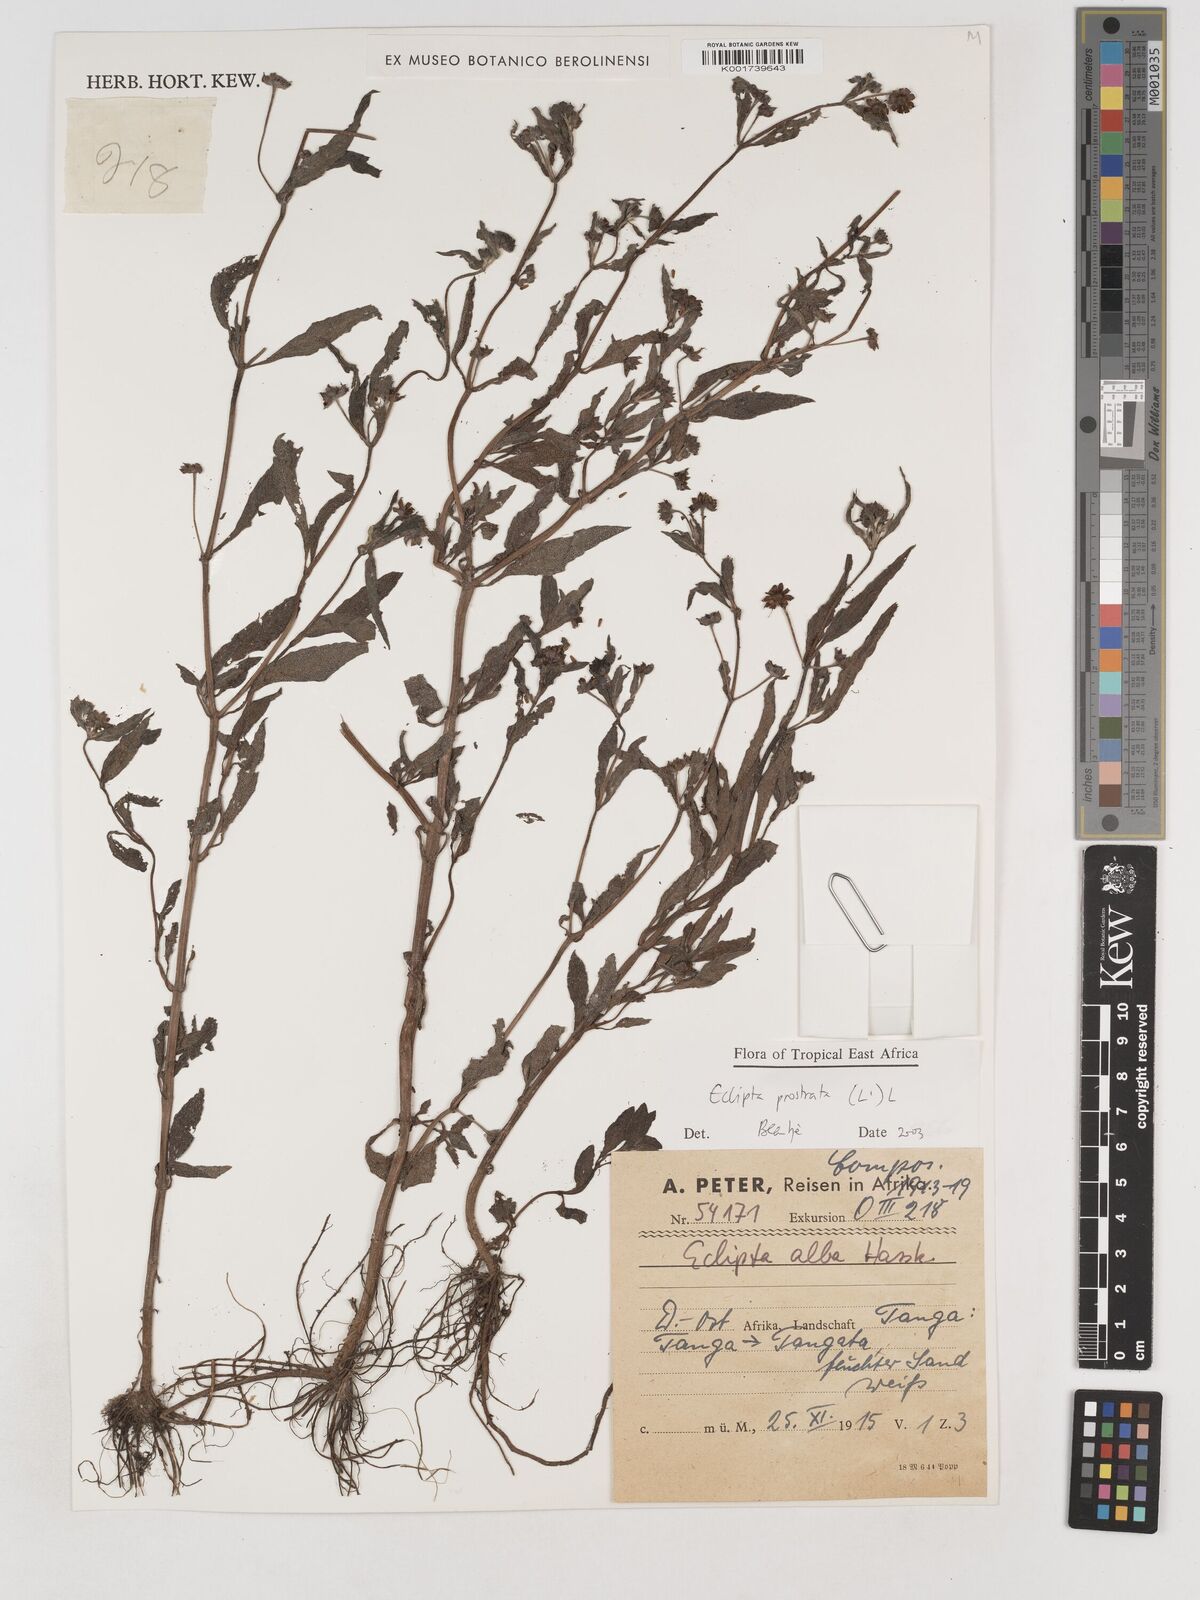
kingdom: Plantae
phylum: Tracheophyta
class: Magnoliopsida
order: Asterales
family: Asteraceae
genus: Eclipta
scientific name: Eclipta alba
